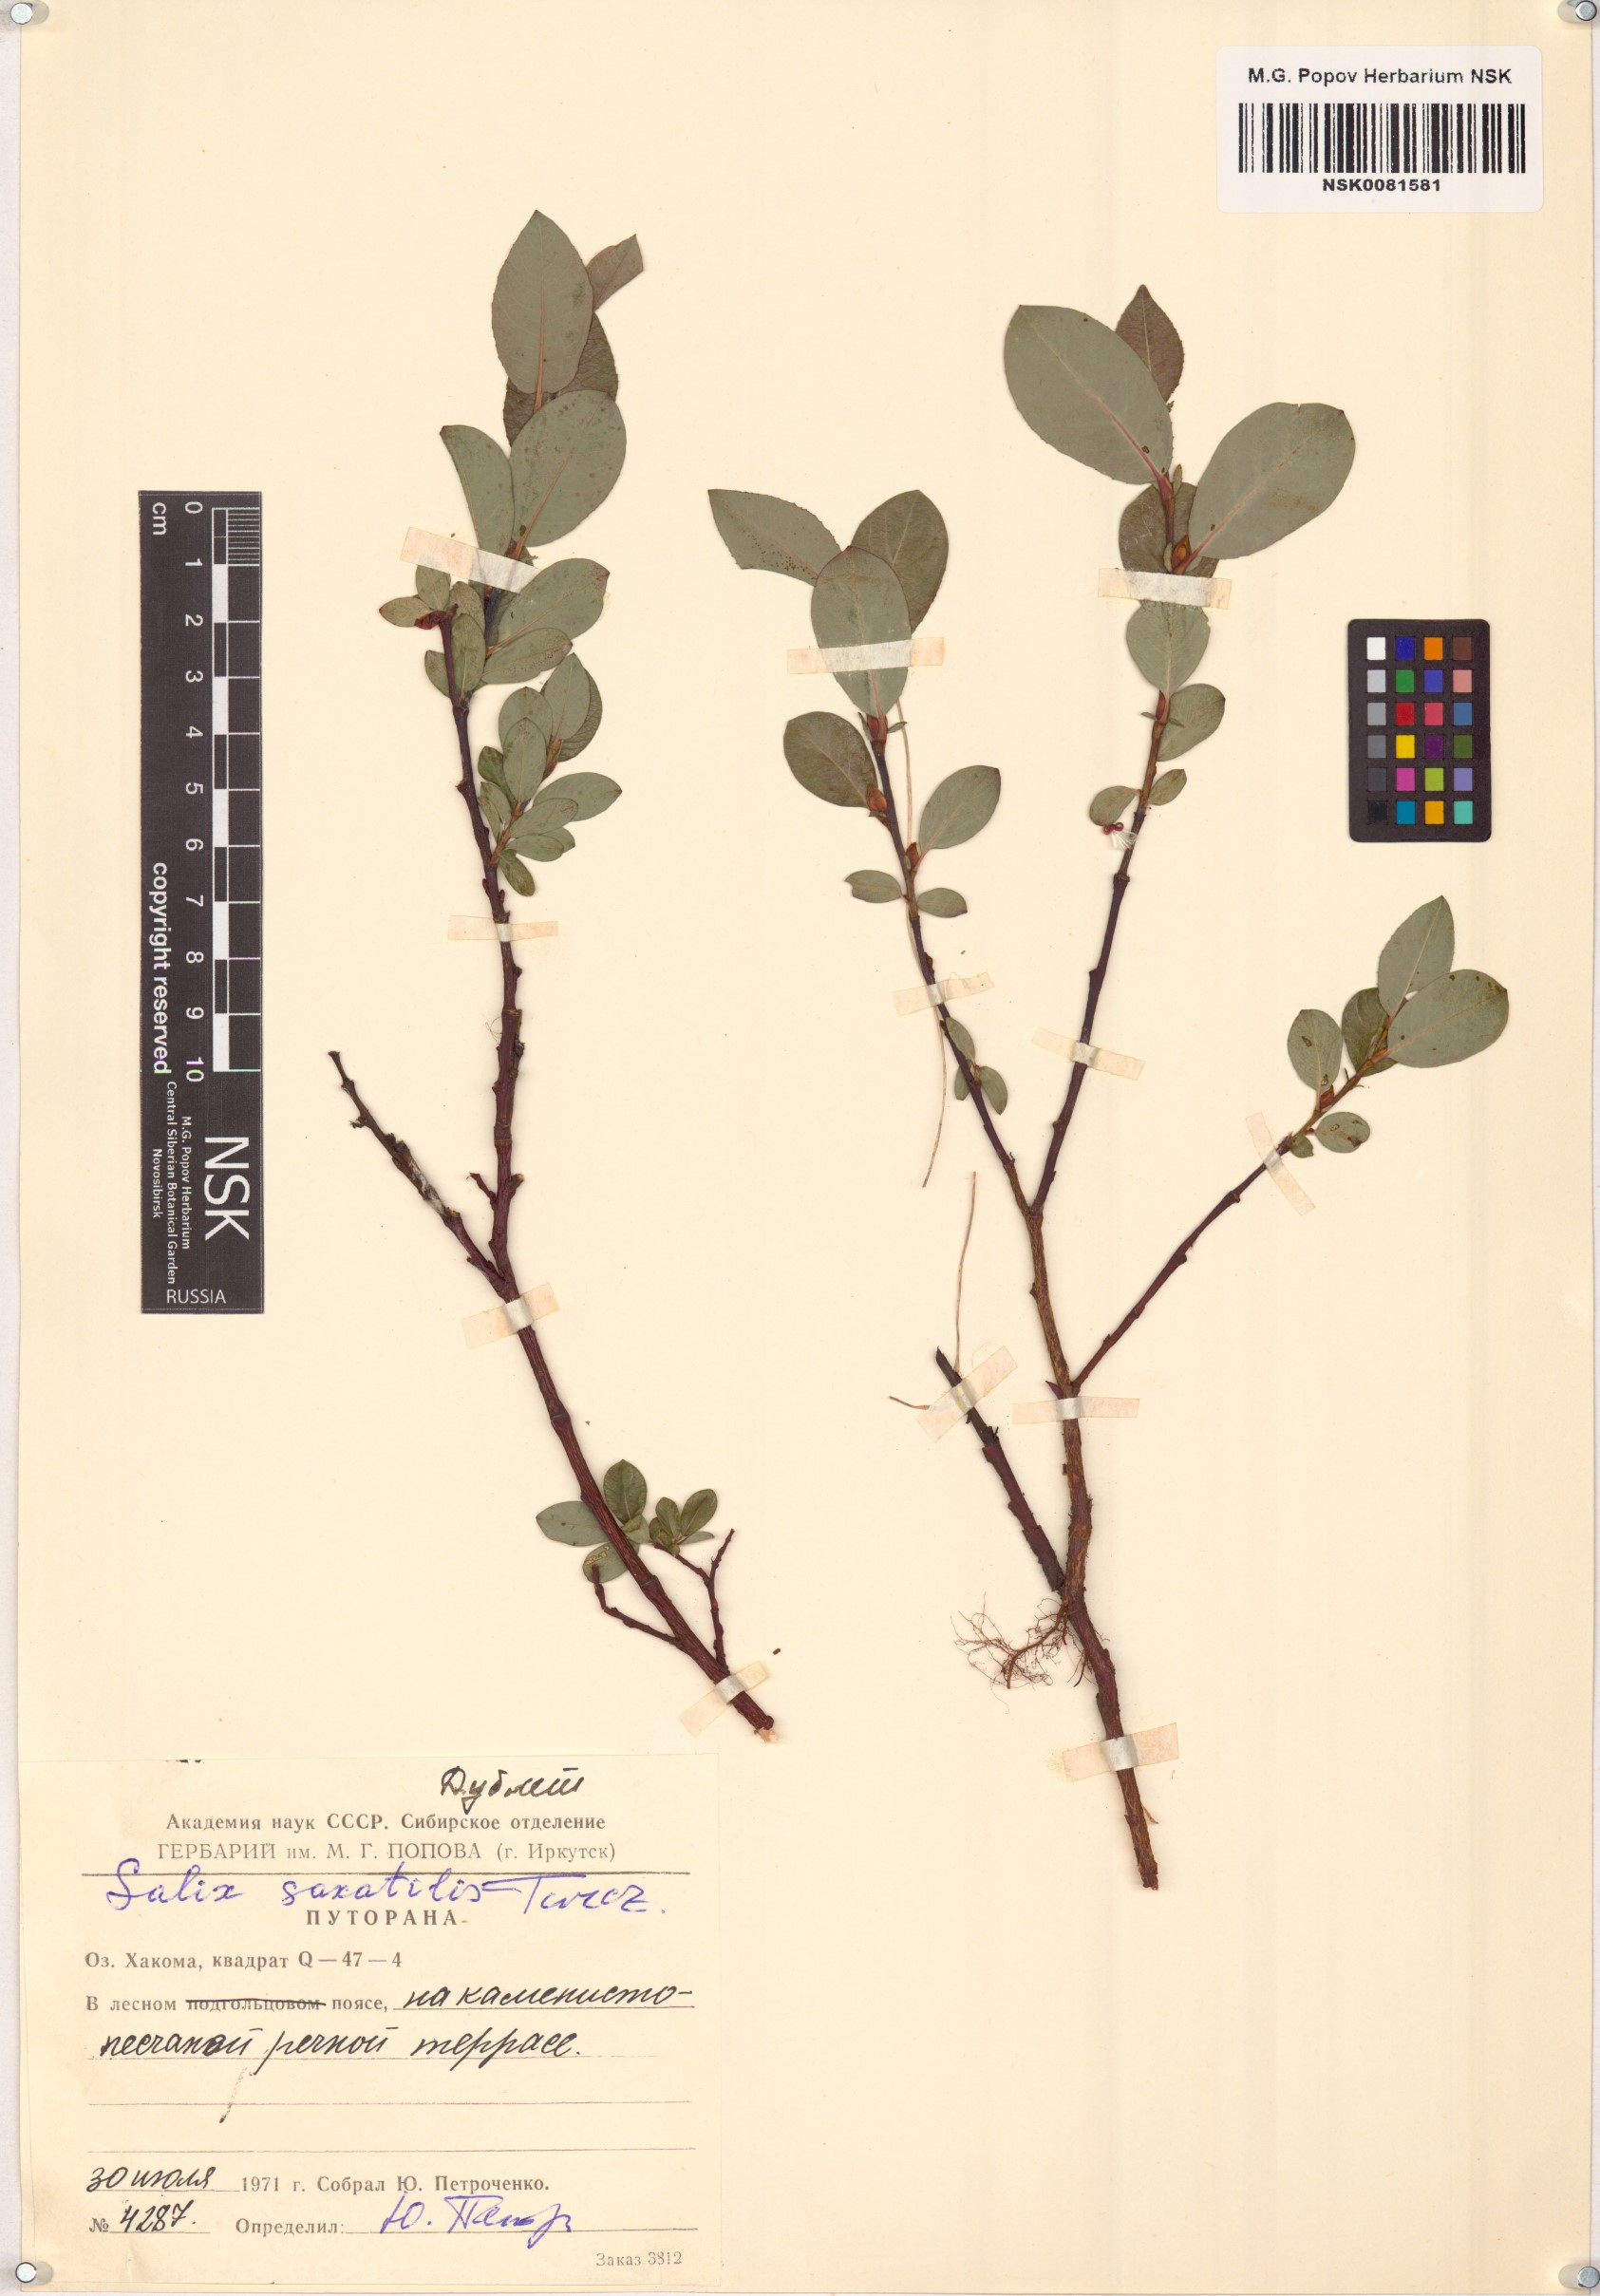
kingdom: Plantae
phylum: Tracheophyta
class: Magnoliopsida
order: Malpighiales
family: Salicaceae
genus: Salix
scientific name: Salix saxatilis
